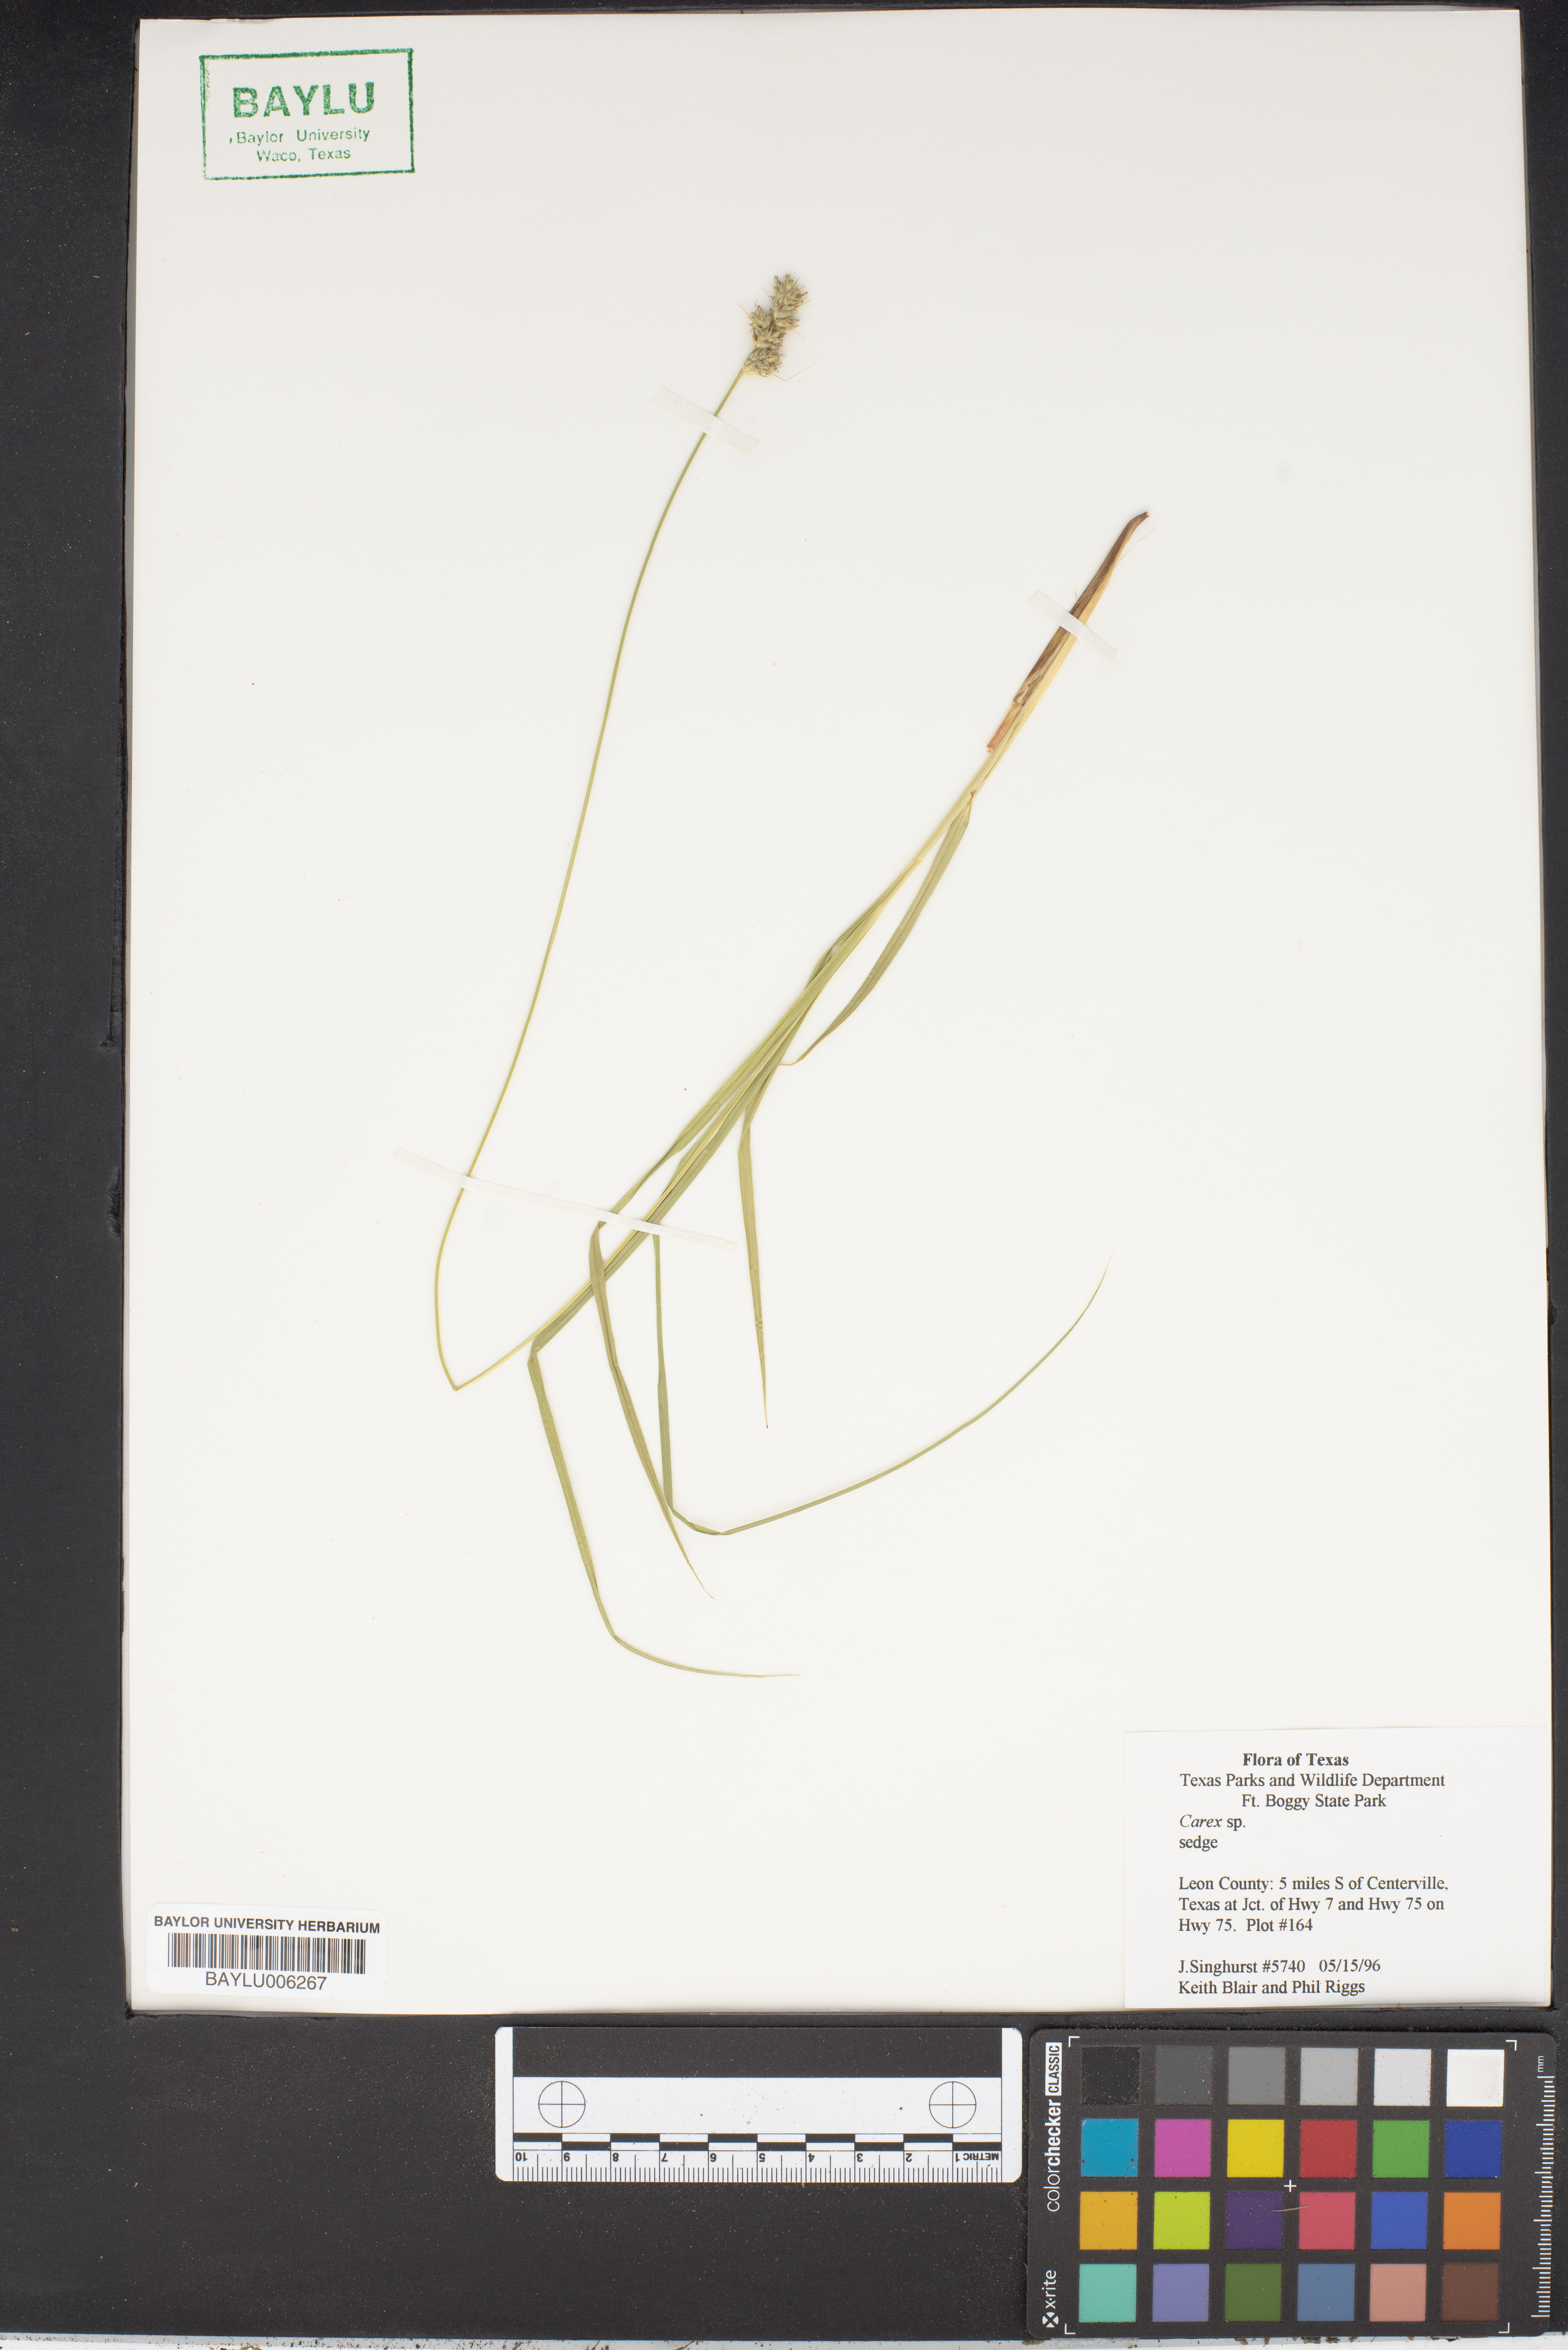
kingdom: Plantae
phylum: Tracheophyta
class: Liliopsida
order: Poales
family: Cyperaceae
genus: Carex
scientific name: Carex
